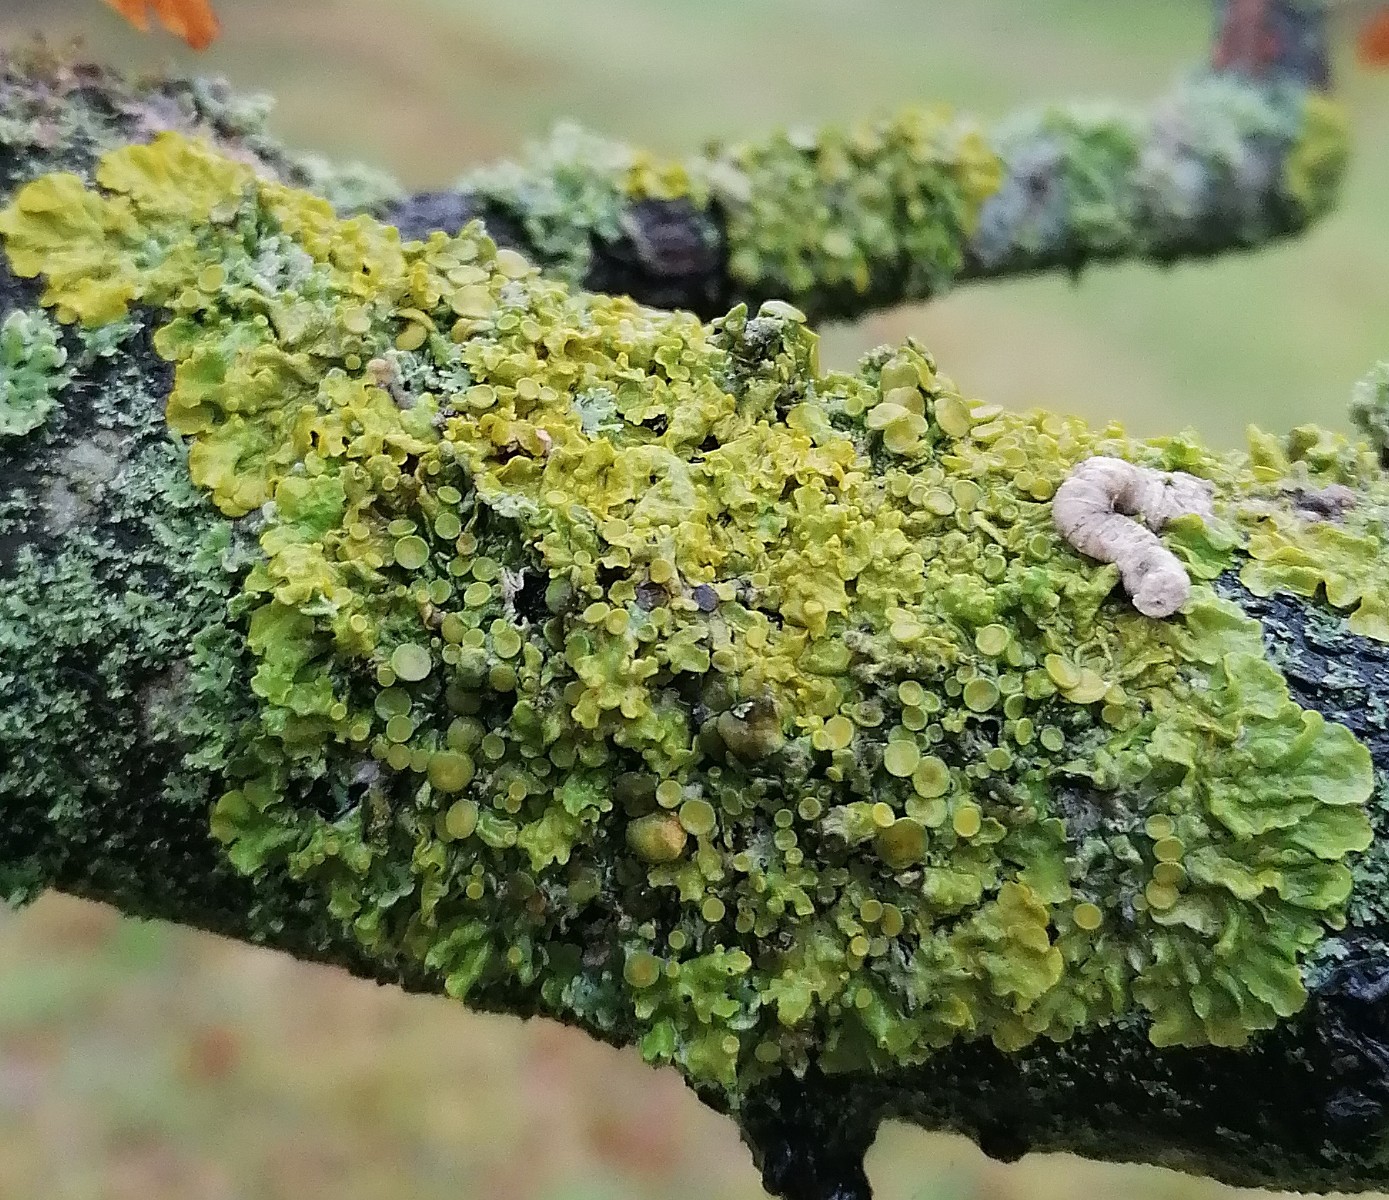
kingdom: Fungi
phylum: Ascomycota
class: Lecanoromycetes
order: Teloschistales
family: Teloschistaceae
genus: Xanthoria
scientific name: Xanthoria parietina
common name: almindelig væggelav
